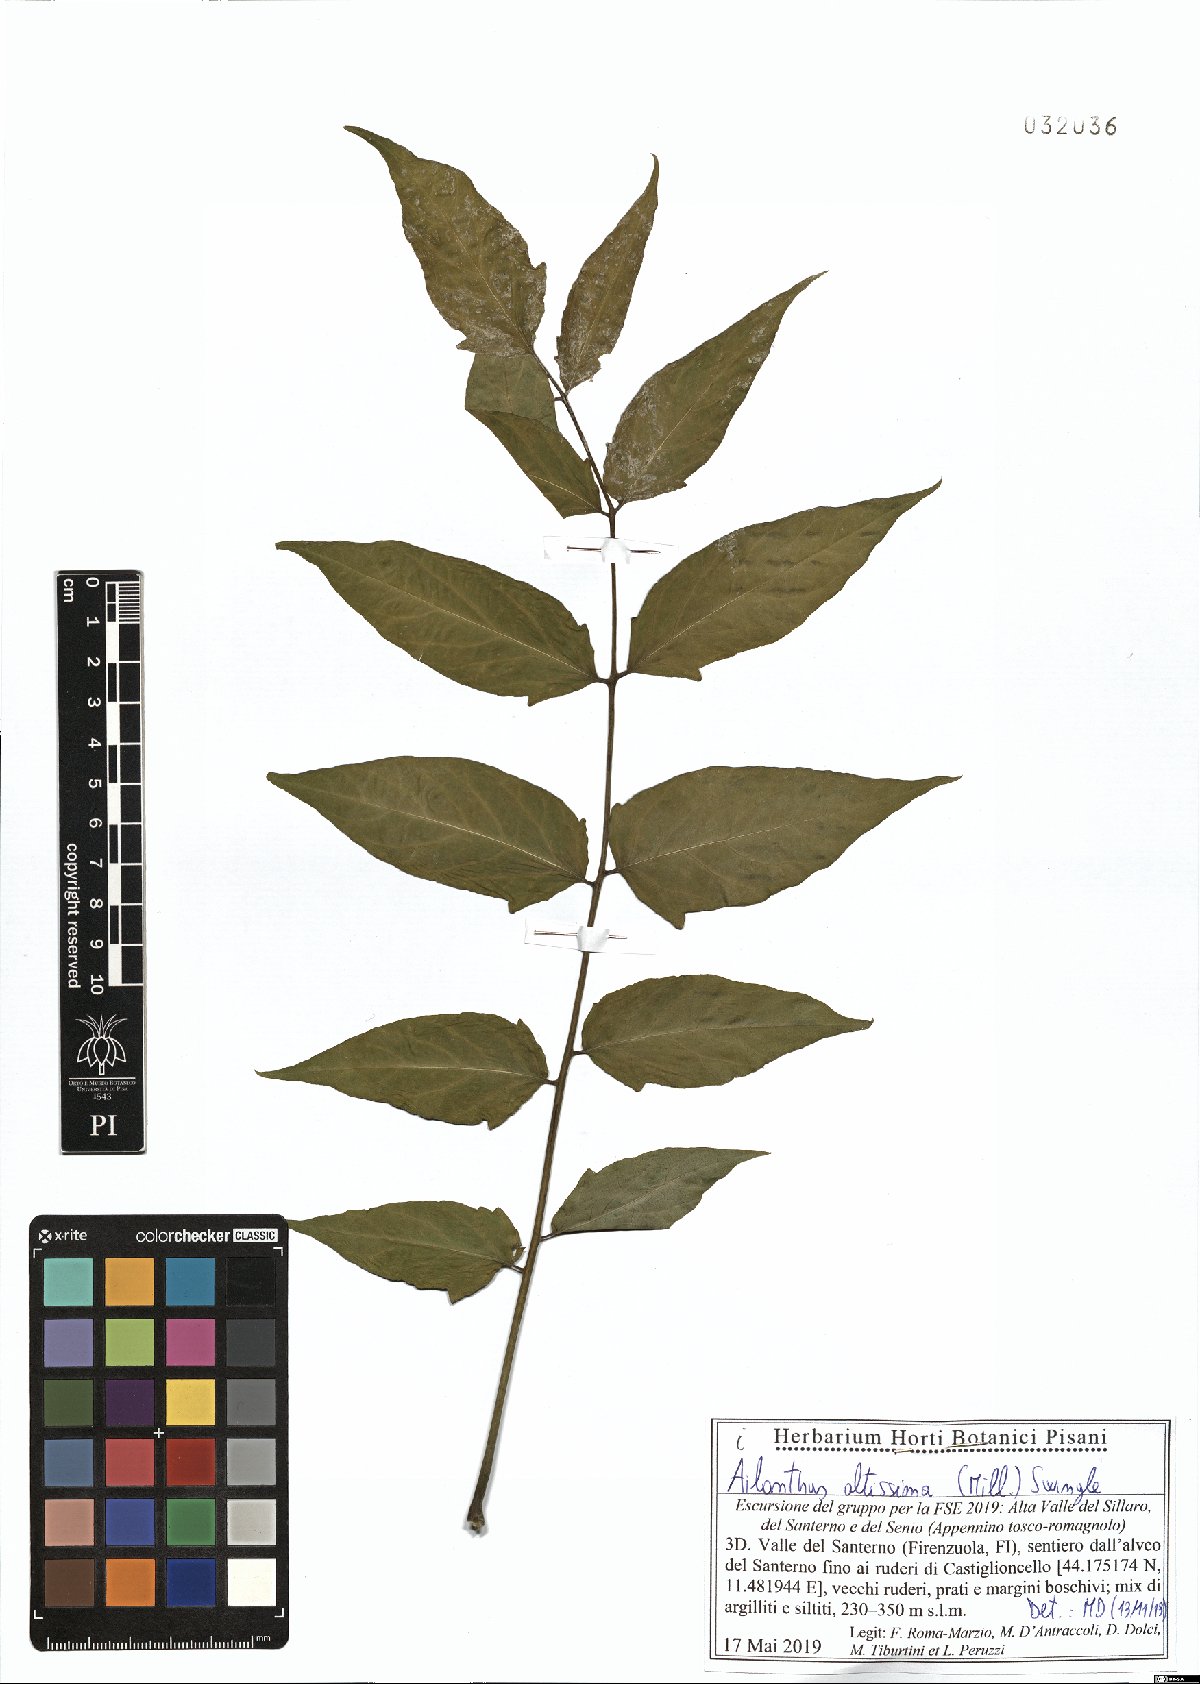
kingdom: Plantae
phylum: Tracheophyta
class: Magnoliopsida
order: Sapindales
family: Simaroubaceae
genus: Ailanthus
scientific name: Ailanthus altissima
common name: Tree-of-heaven
